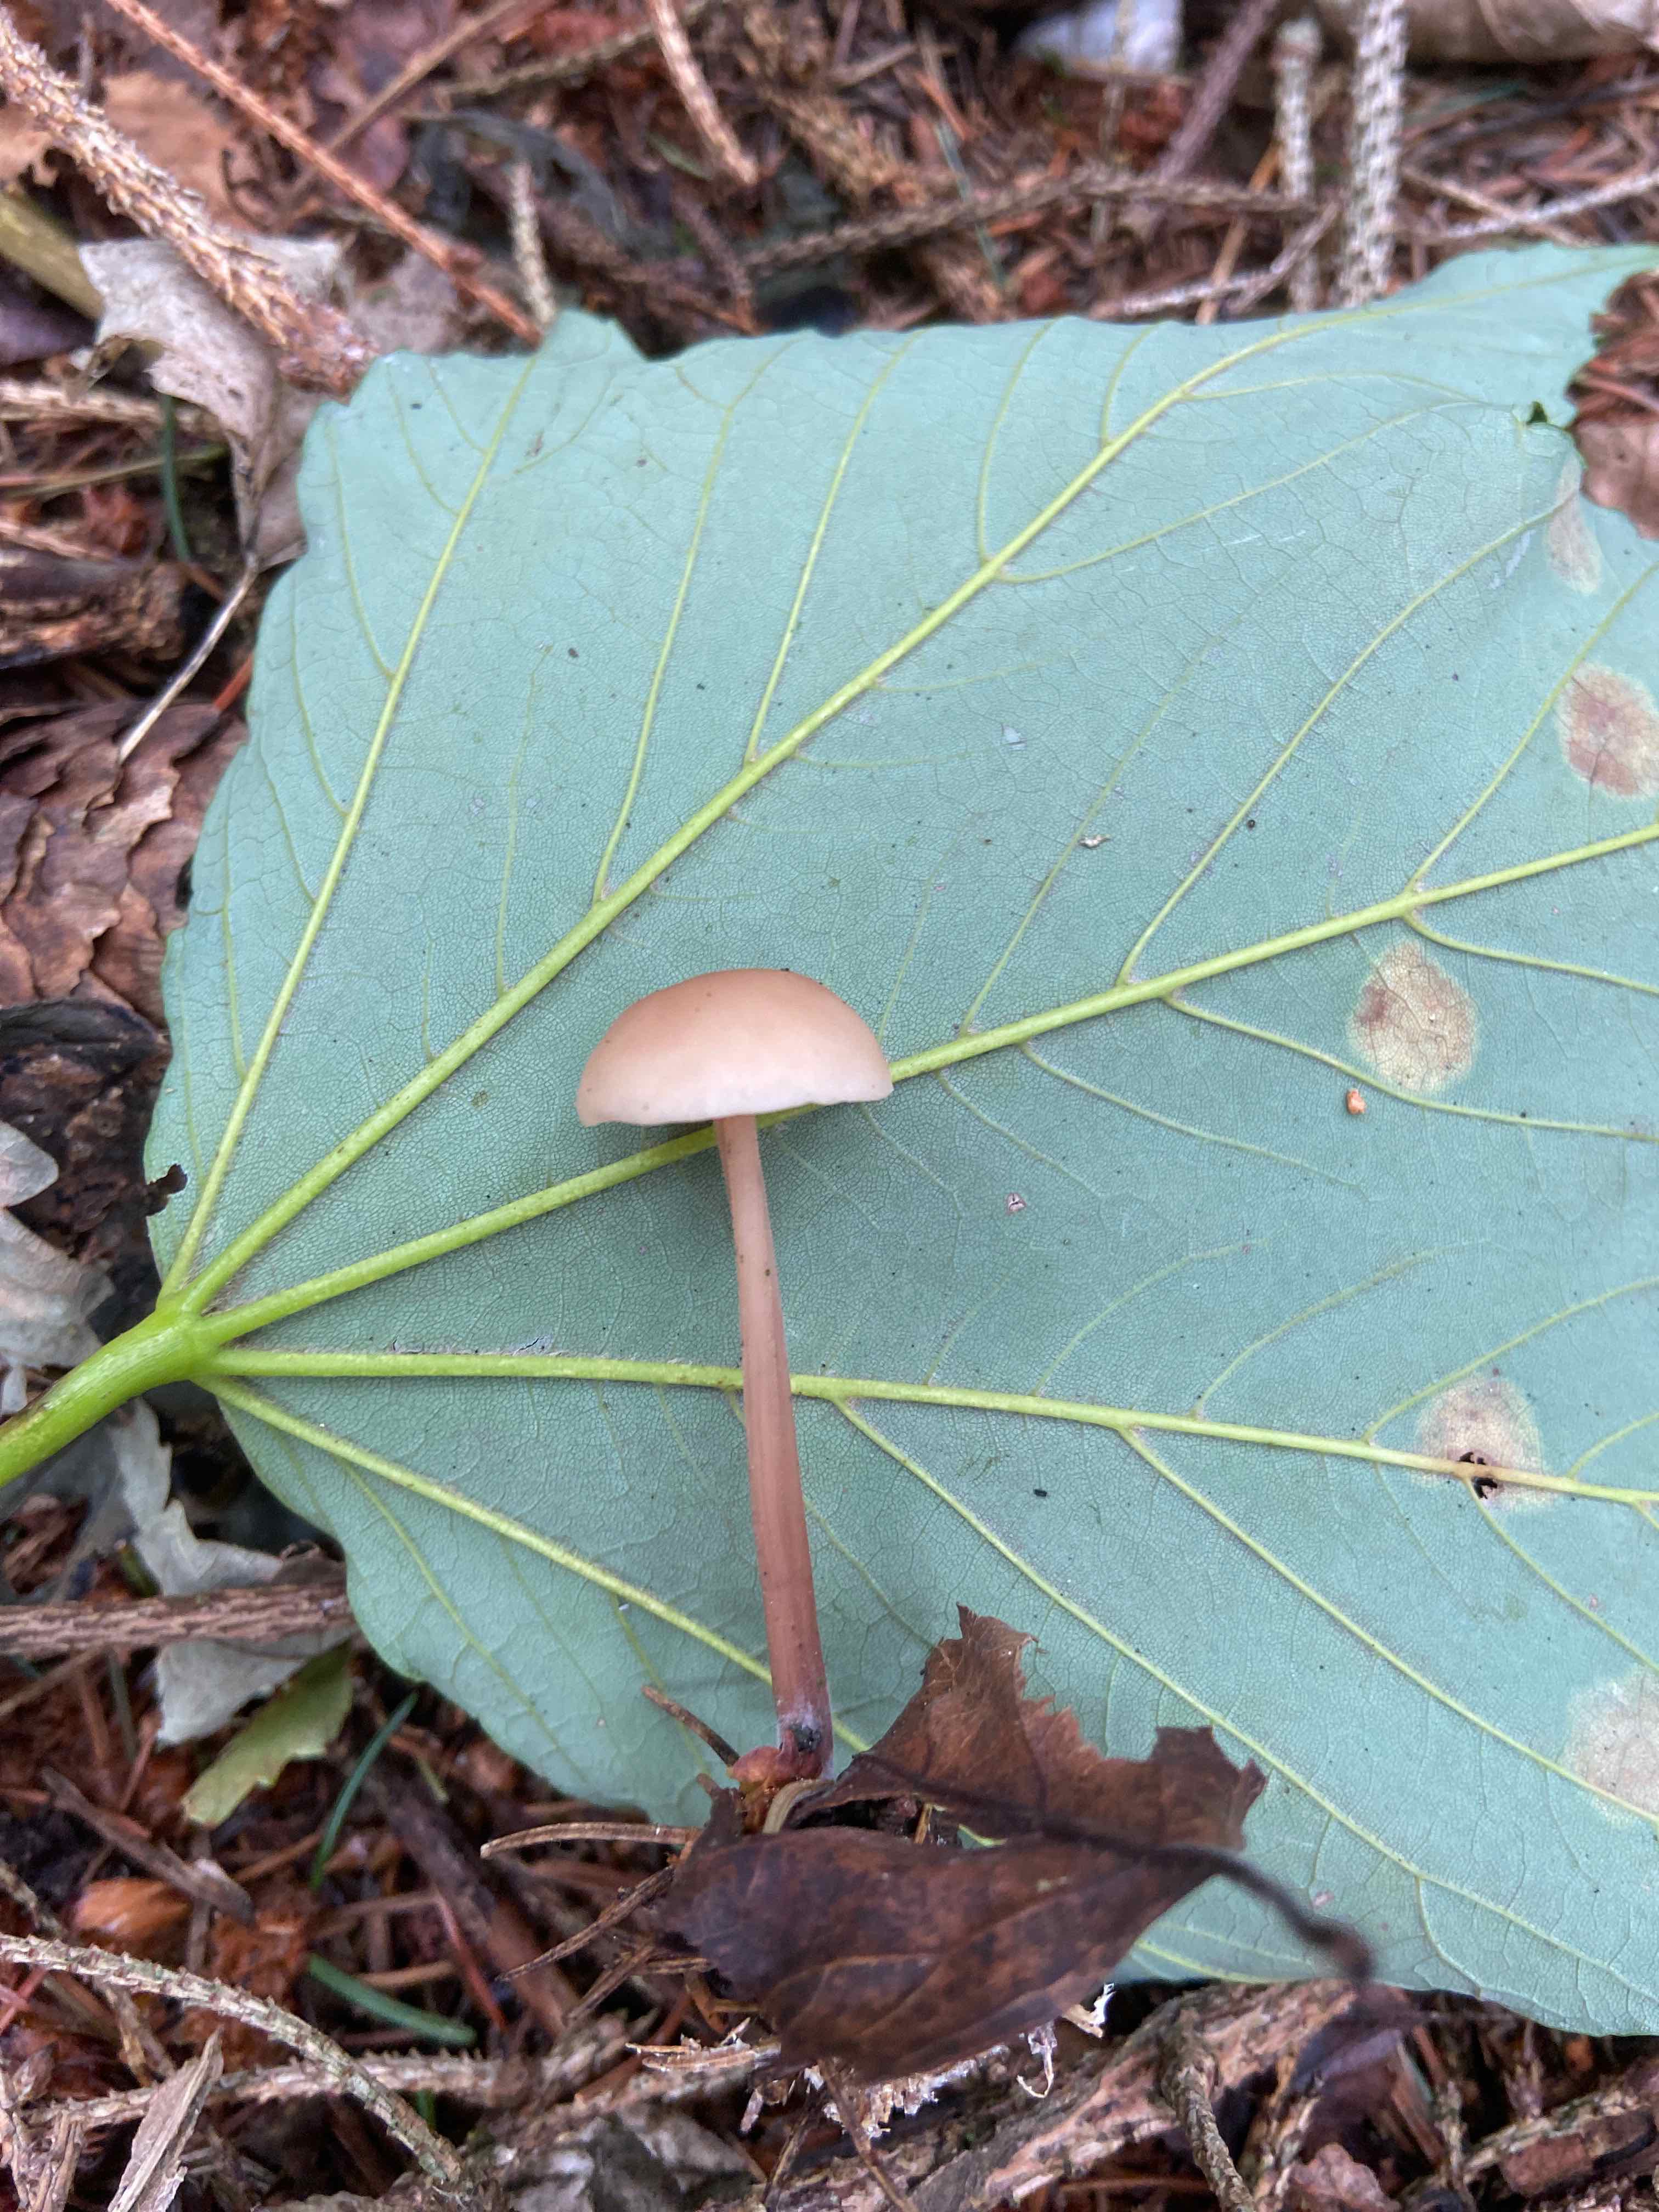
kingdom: Fungi
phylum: Basidiomycota
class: Agaricomycetes
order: Agaricales
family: Omphalotaceae
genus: Collybiopsis
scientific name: Collybiopsis confluens
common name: knippe-fladhat
